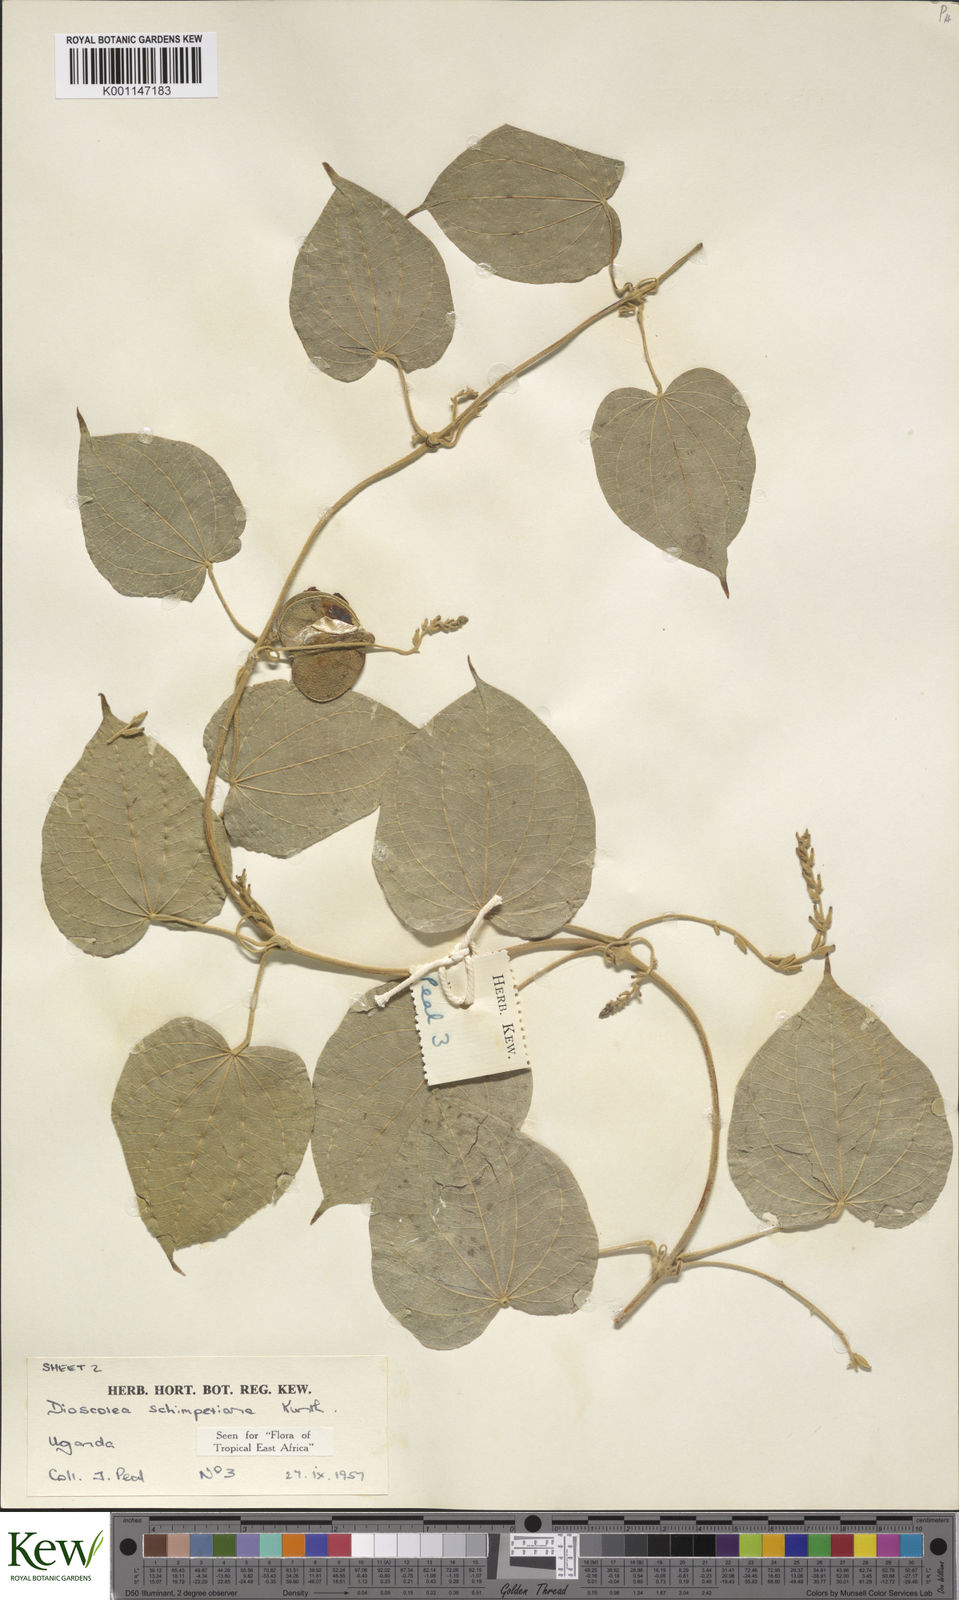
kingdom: Plantae
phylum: Tracheophyta
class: Liliopsida
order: Dioscoreales
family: Dioscoreaceae
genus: Dioscorea
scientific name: Dioscorea schimperiana
